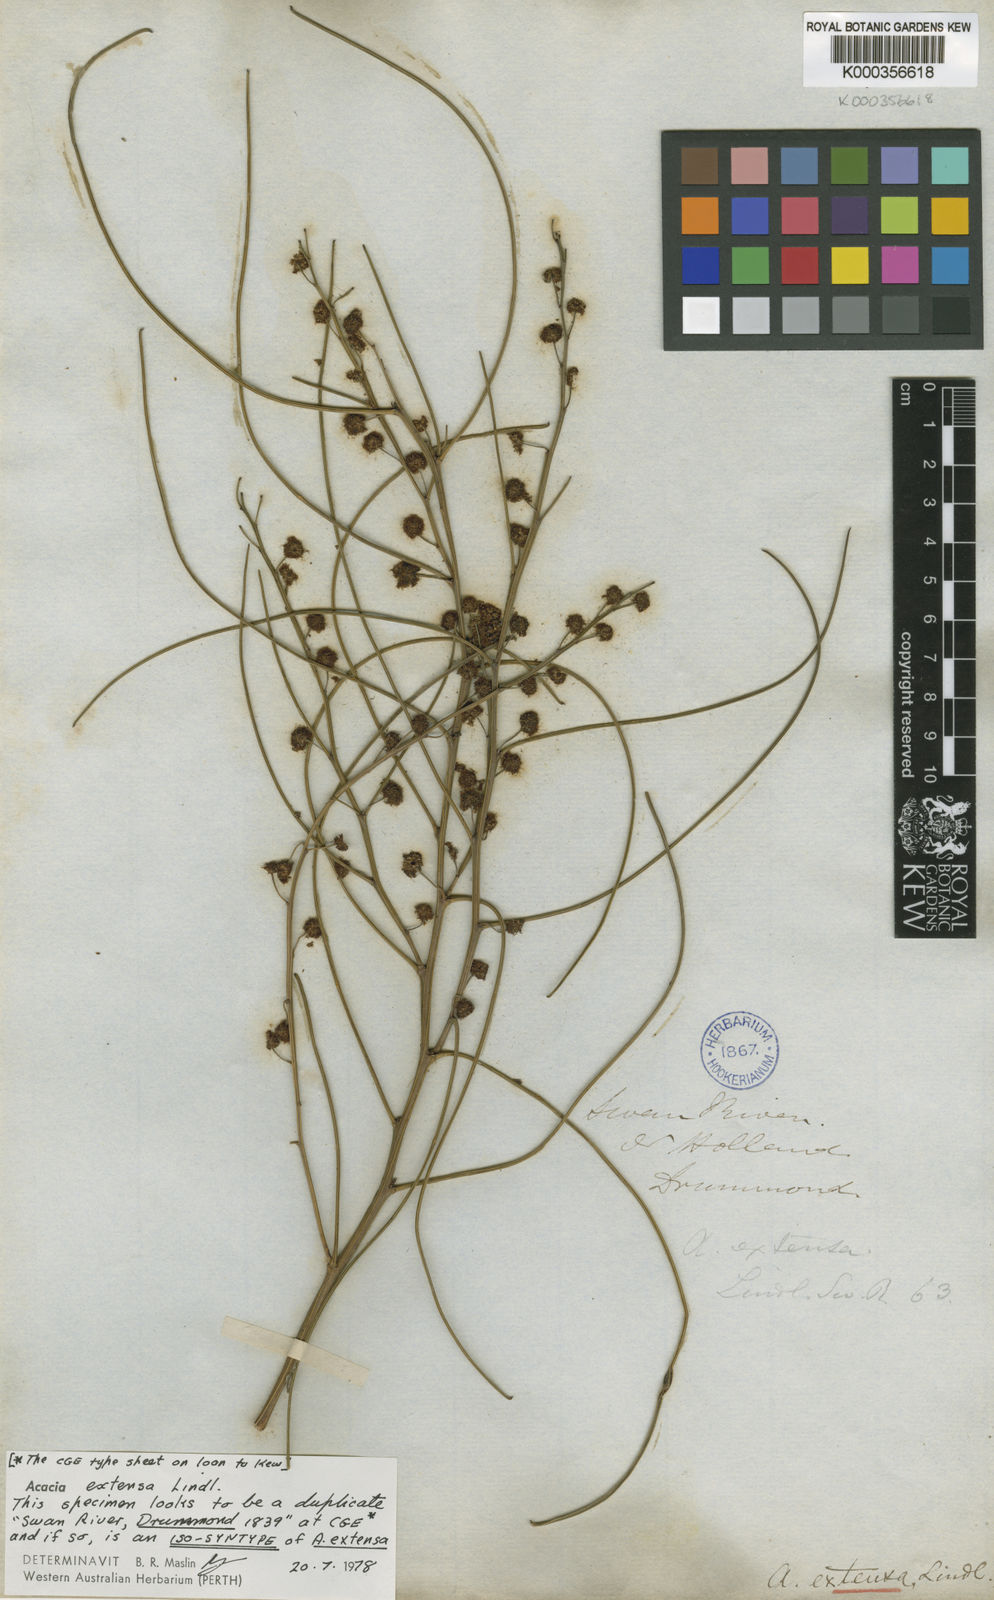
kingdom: Plantae
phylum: Tracheophyta
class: Magnoliopsida
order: Fabales
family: Fabaceae
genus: Acacia
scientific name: Acacia extensa
